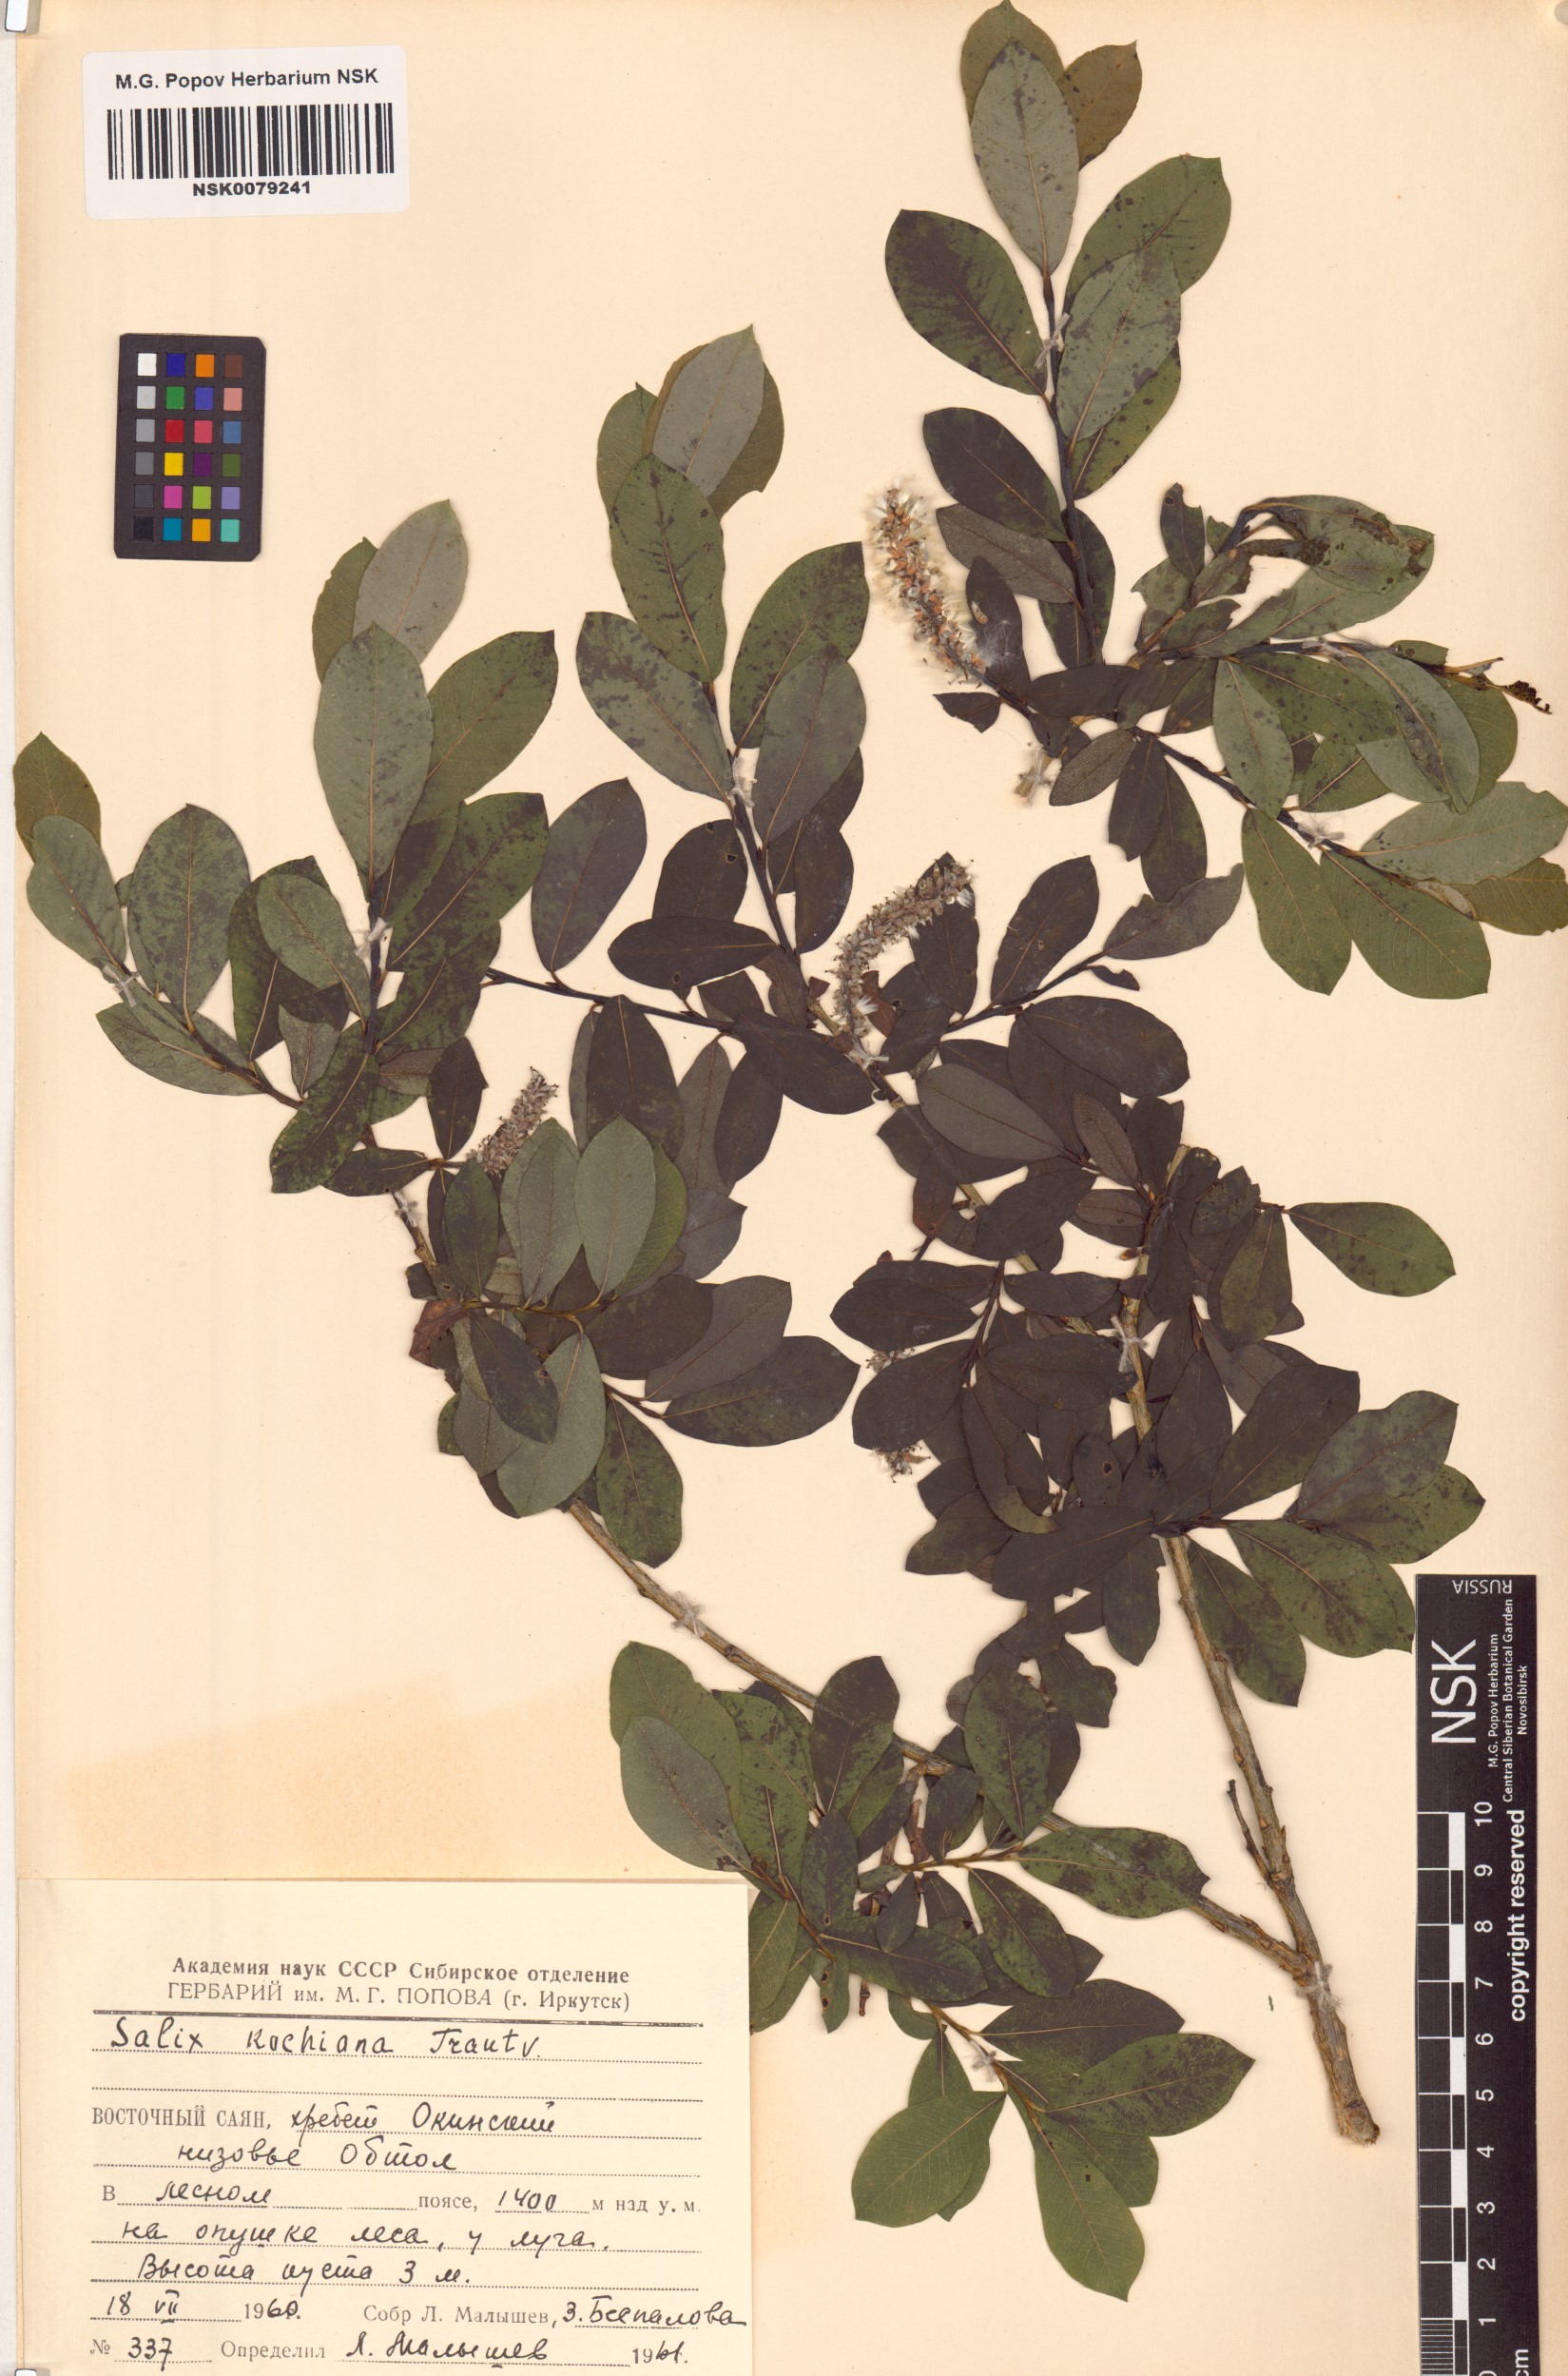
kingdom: Plantae
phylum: Tracheophyta
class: Magnoliopsida
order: Malpighiales
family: Salicaceae
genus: Salix
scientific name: Salix kochiana
